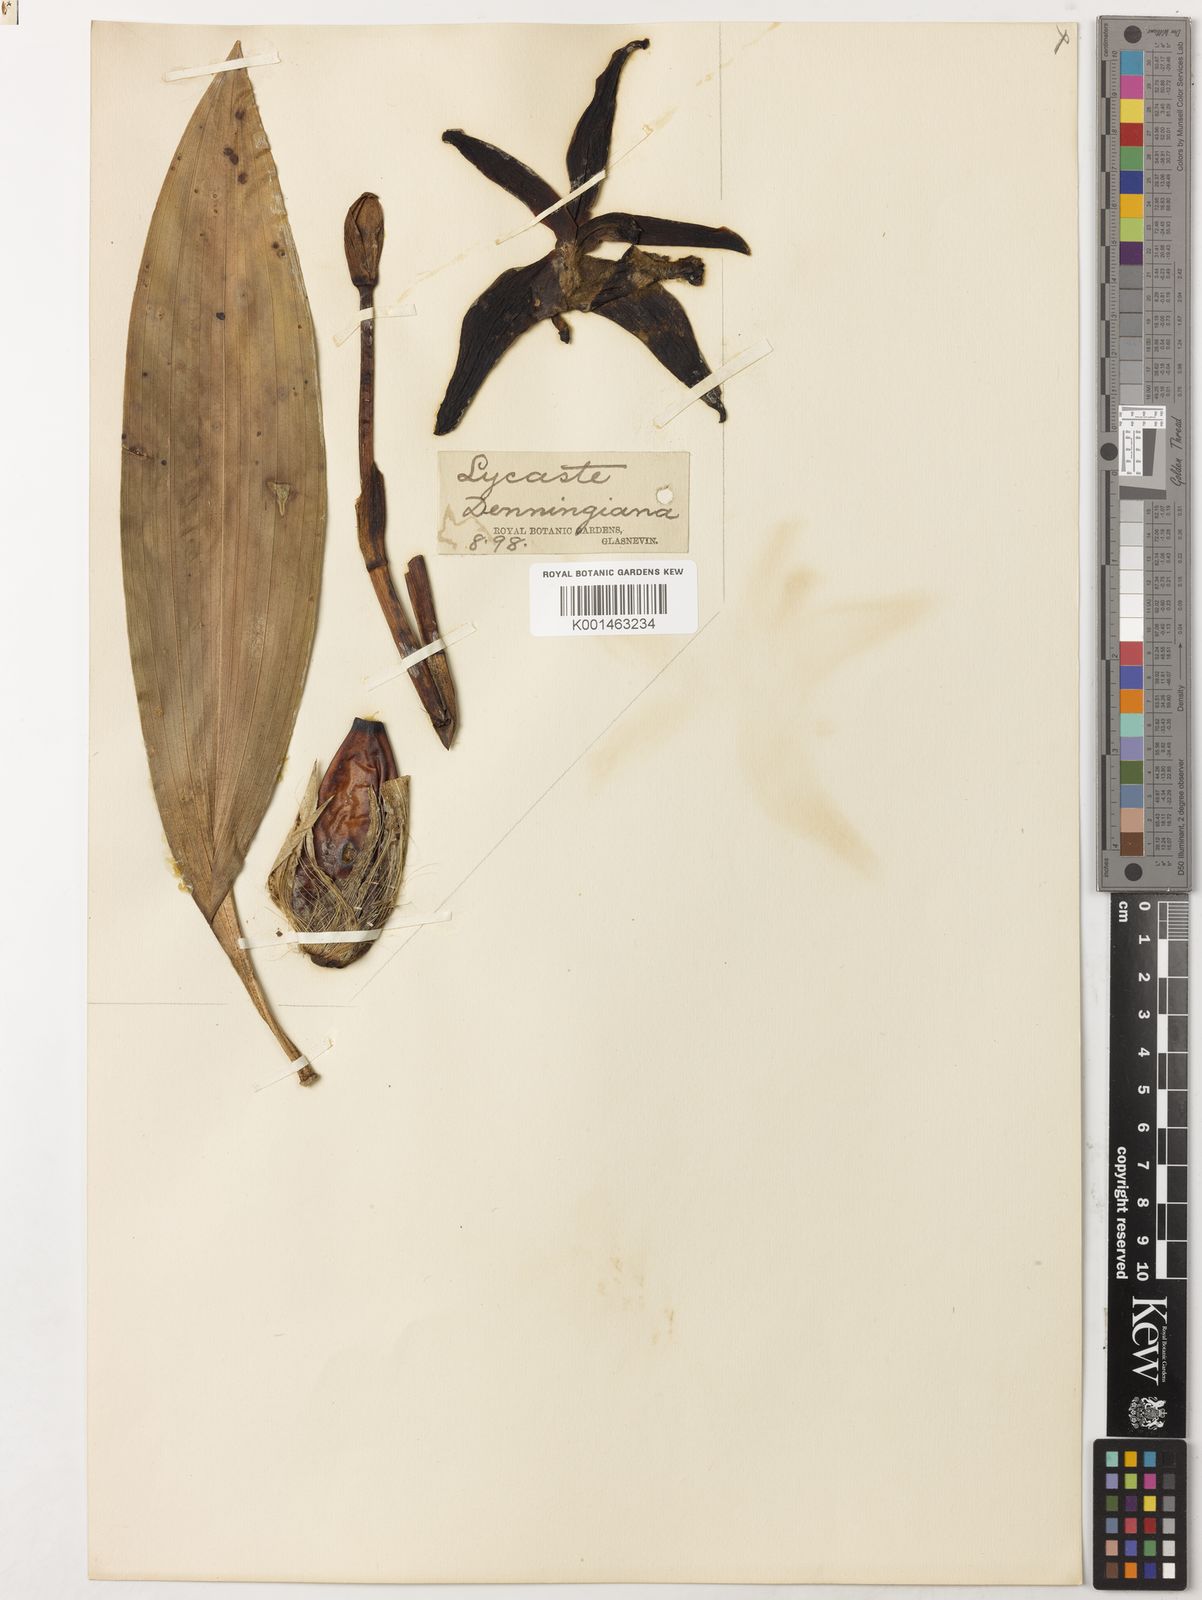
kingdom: Plantae
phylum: Tracheophyta
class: Liliopsida
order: Asparagales
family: Orchidaceae
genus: Ida
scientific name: Ida cinnabarina
